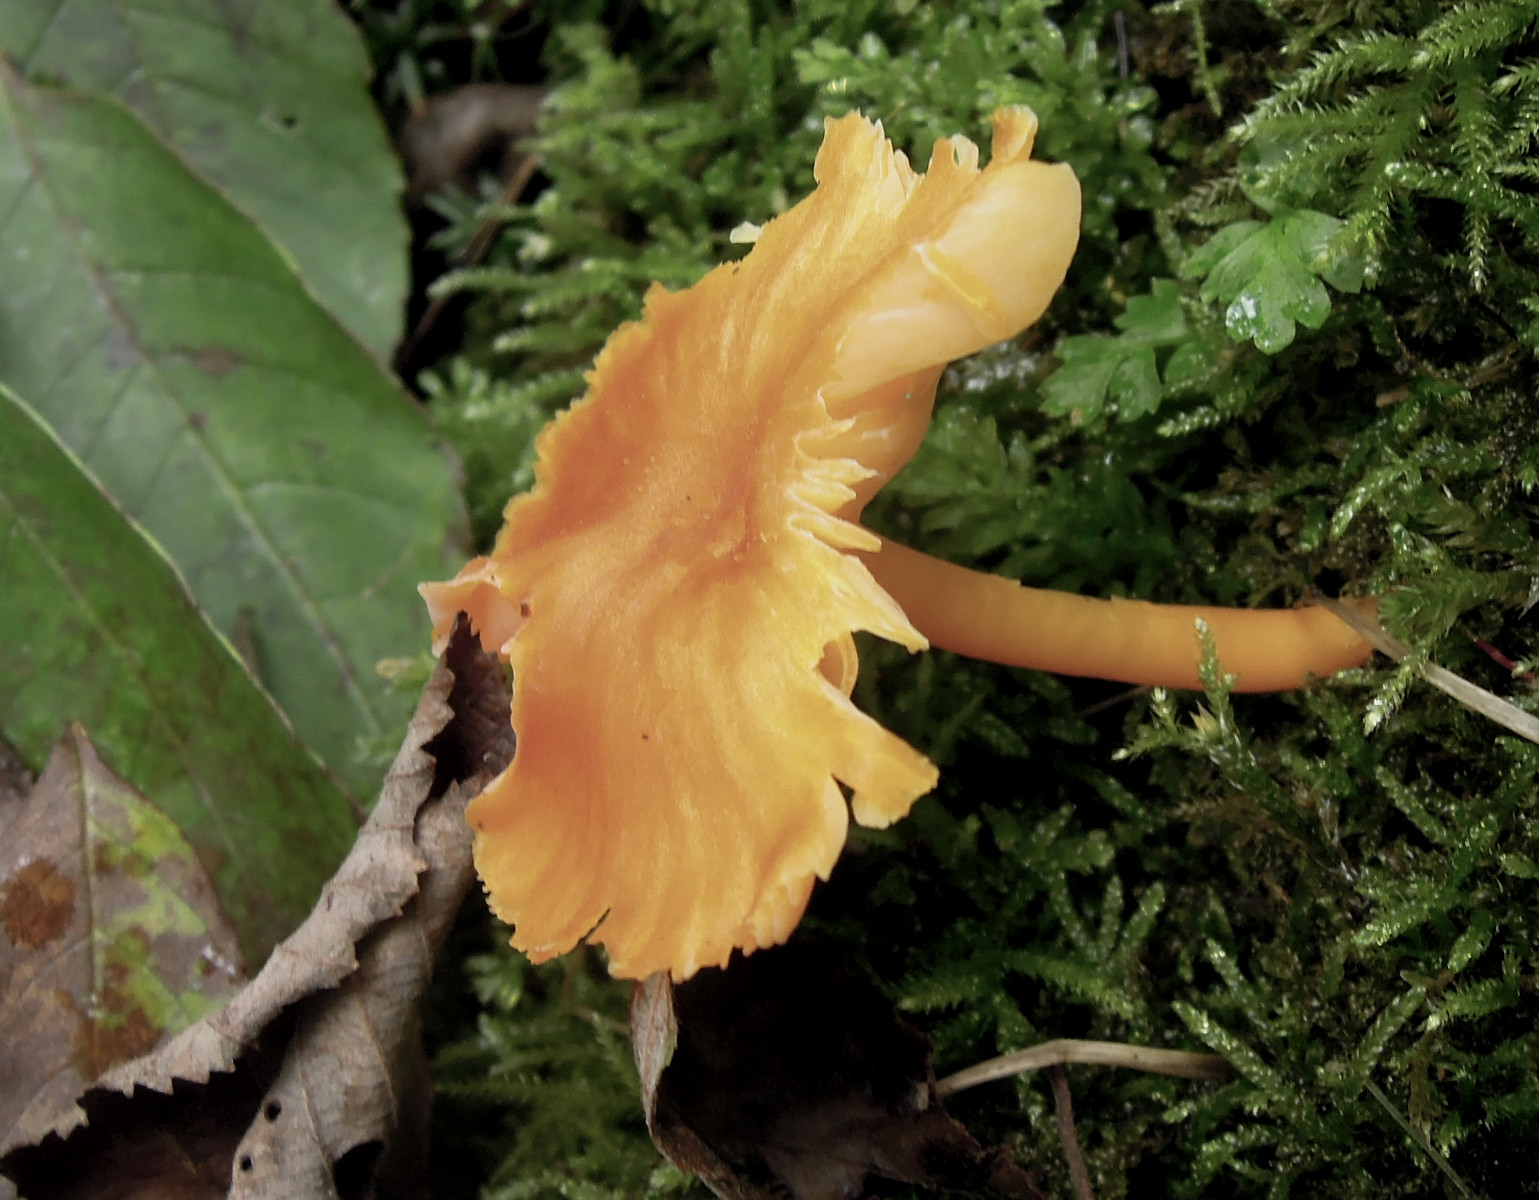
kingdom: Fungi
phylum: Basidiomycota
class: Agaricomycetes
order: Agaricales
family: Hygrophoraceae
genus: Hygrocybe
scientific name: Hygrocybe
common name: vokshat
